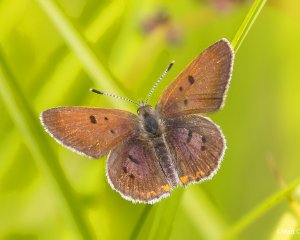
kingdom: Animalia
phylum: Arthropoda
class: Insecta
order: Lepidoptera
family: Sesiidae
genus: Sesia
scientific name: Sesia Lycaena epixanthe
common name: Bog Copper
